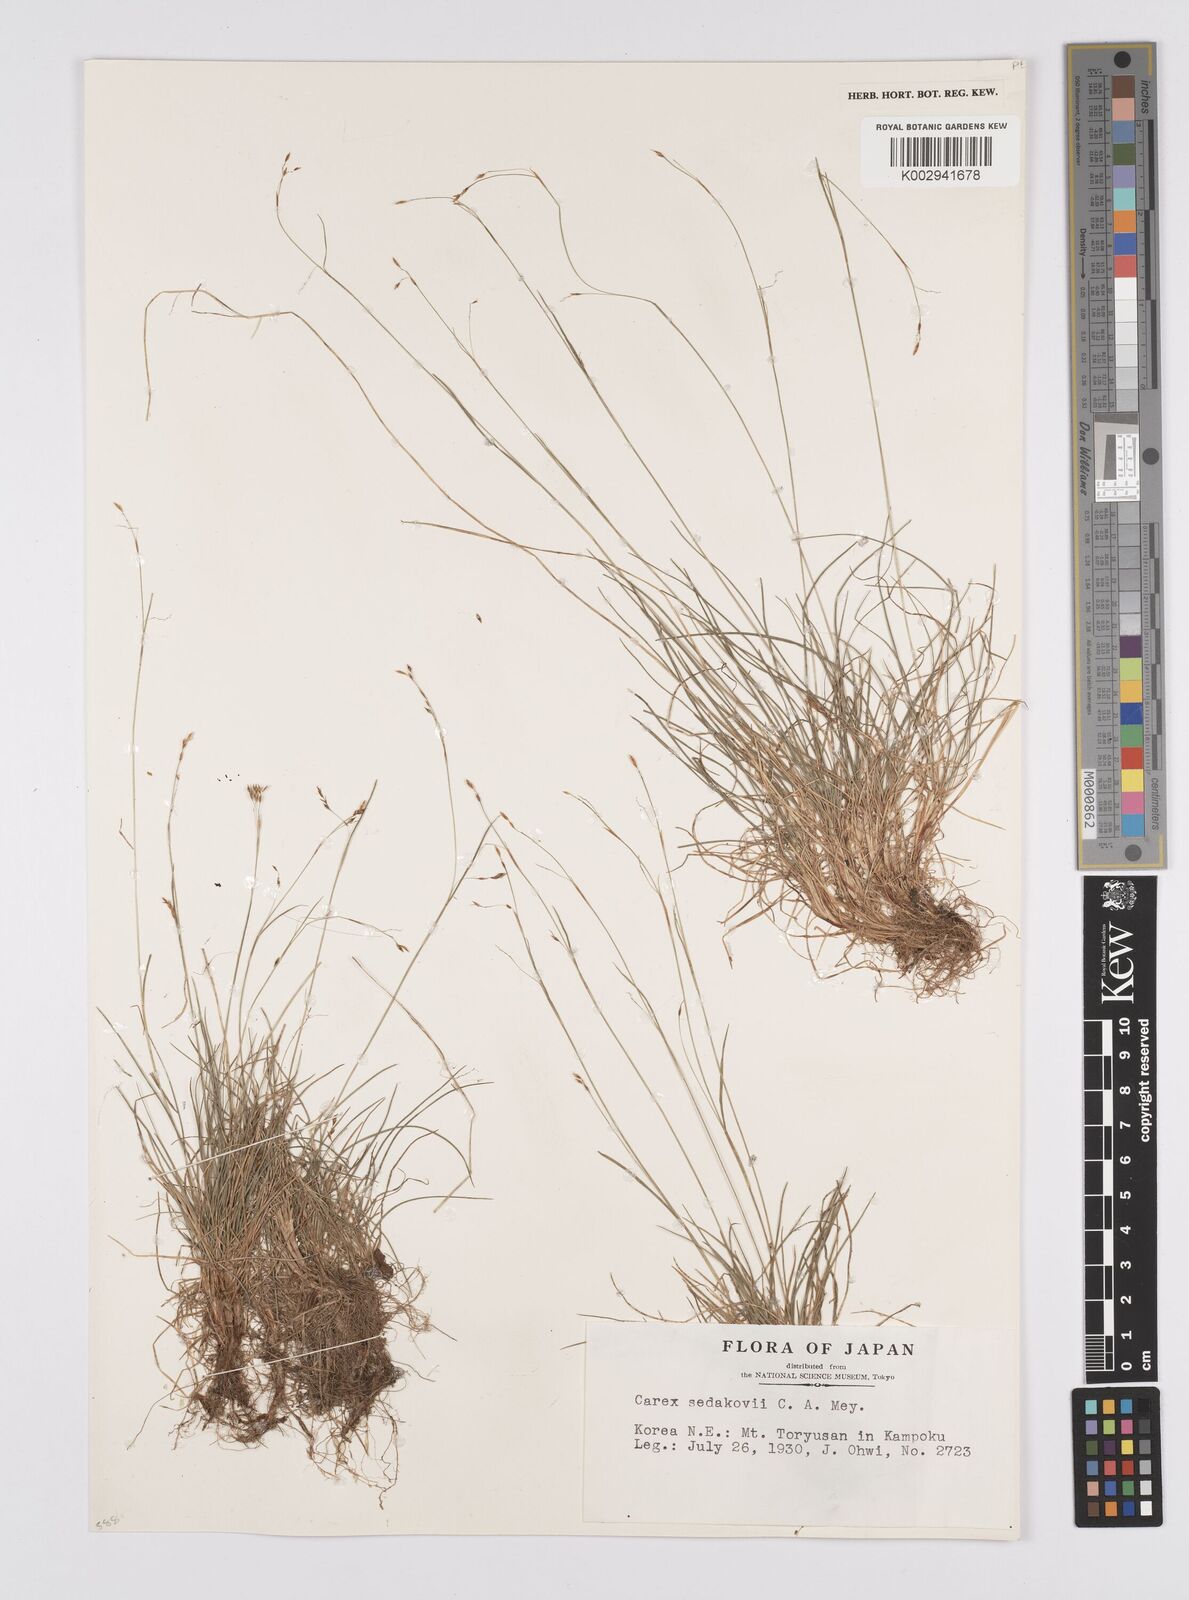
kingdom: Plantae
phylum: Tracheophyta
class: Liliopsida
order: Poales
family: Cyperaceae
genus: Carex
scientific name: Carex sedakowii
